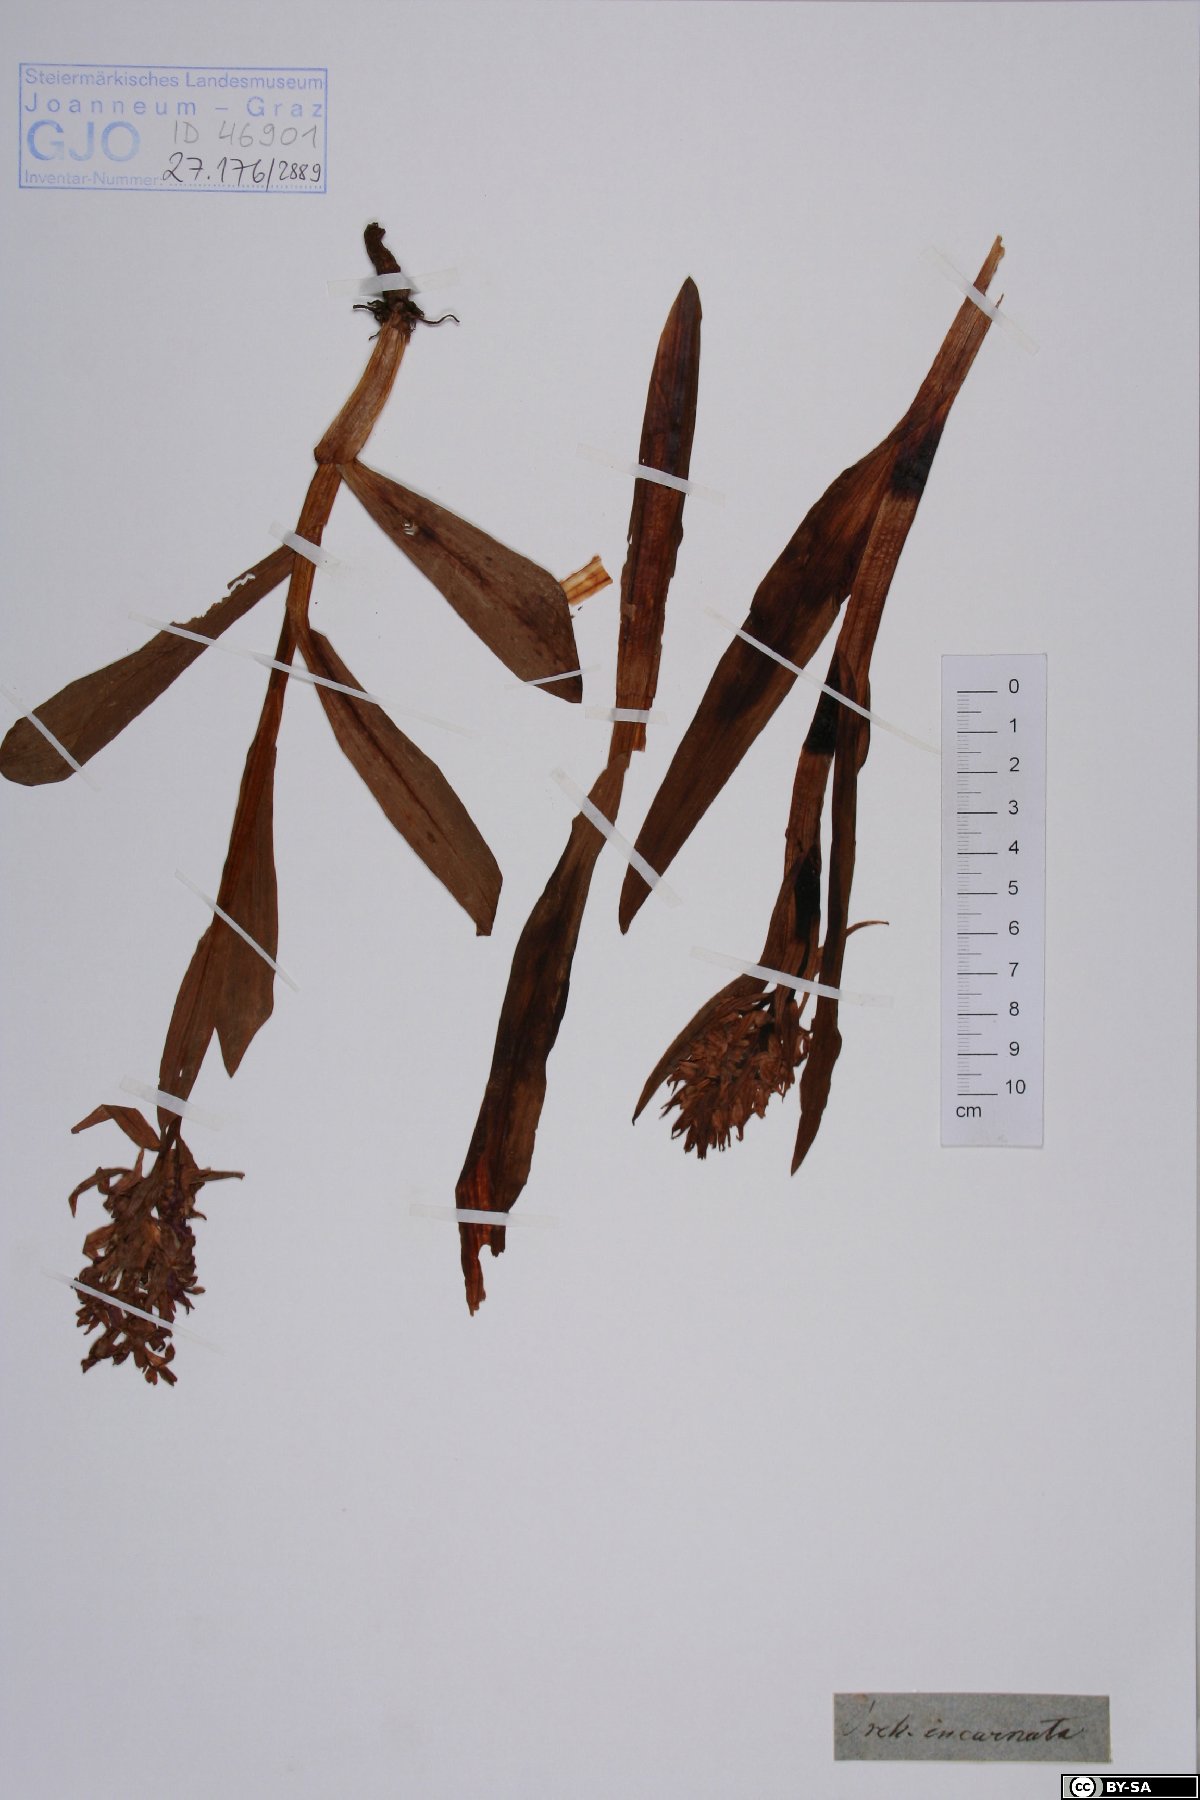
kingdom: Plantae
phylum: Tracheophyta
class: Liliopsida
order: Asparagales
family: Orchidaceae
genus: Dactylorhiza
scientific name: Dactylorhiza incarnata
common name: Early marsh-orchid
